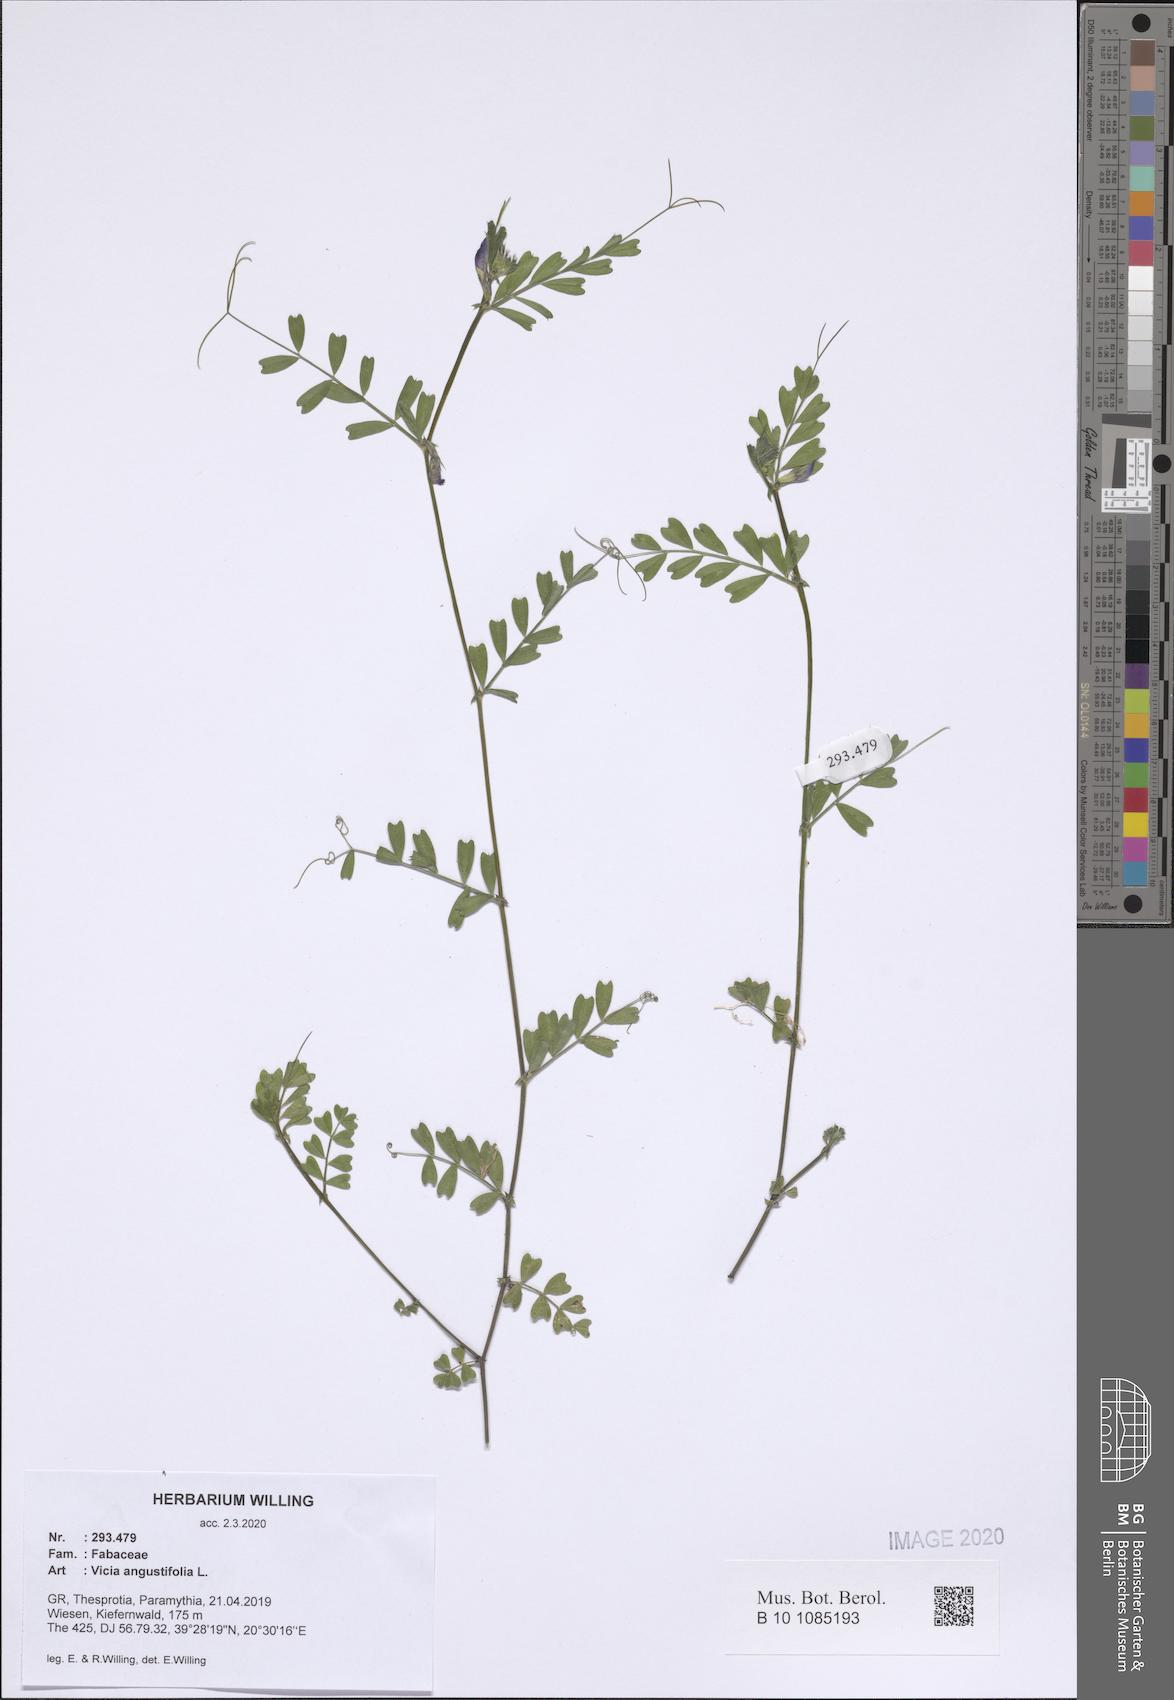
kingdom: Plantae
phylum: Tracheophyta
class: Magnoliopsida
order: Fabales
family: Fabaceae
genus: Vicia
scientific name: Vicia sativa
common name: Garden vetch
